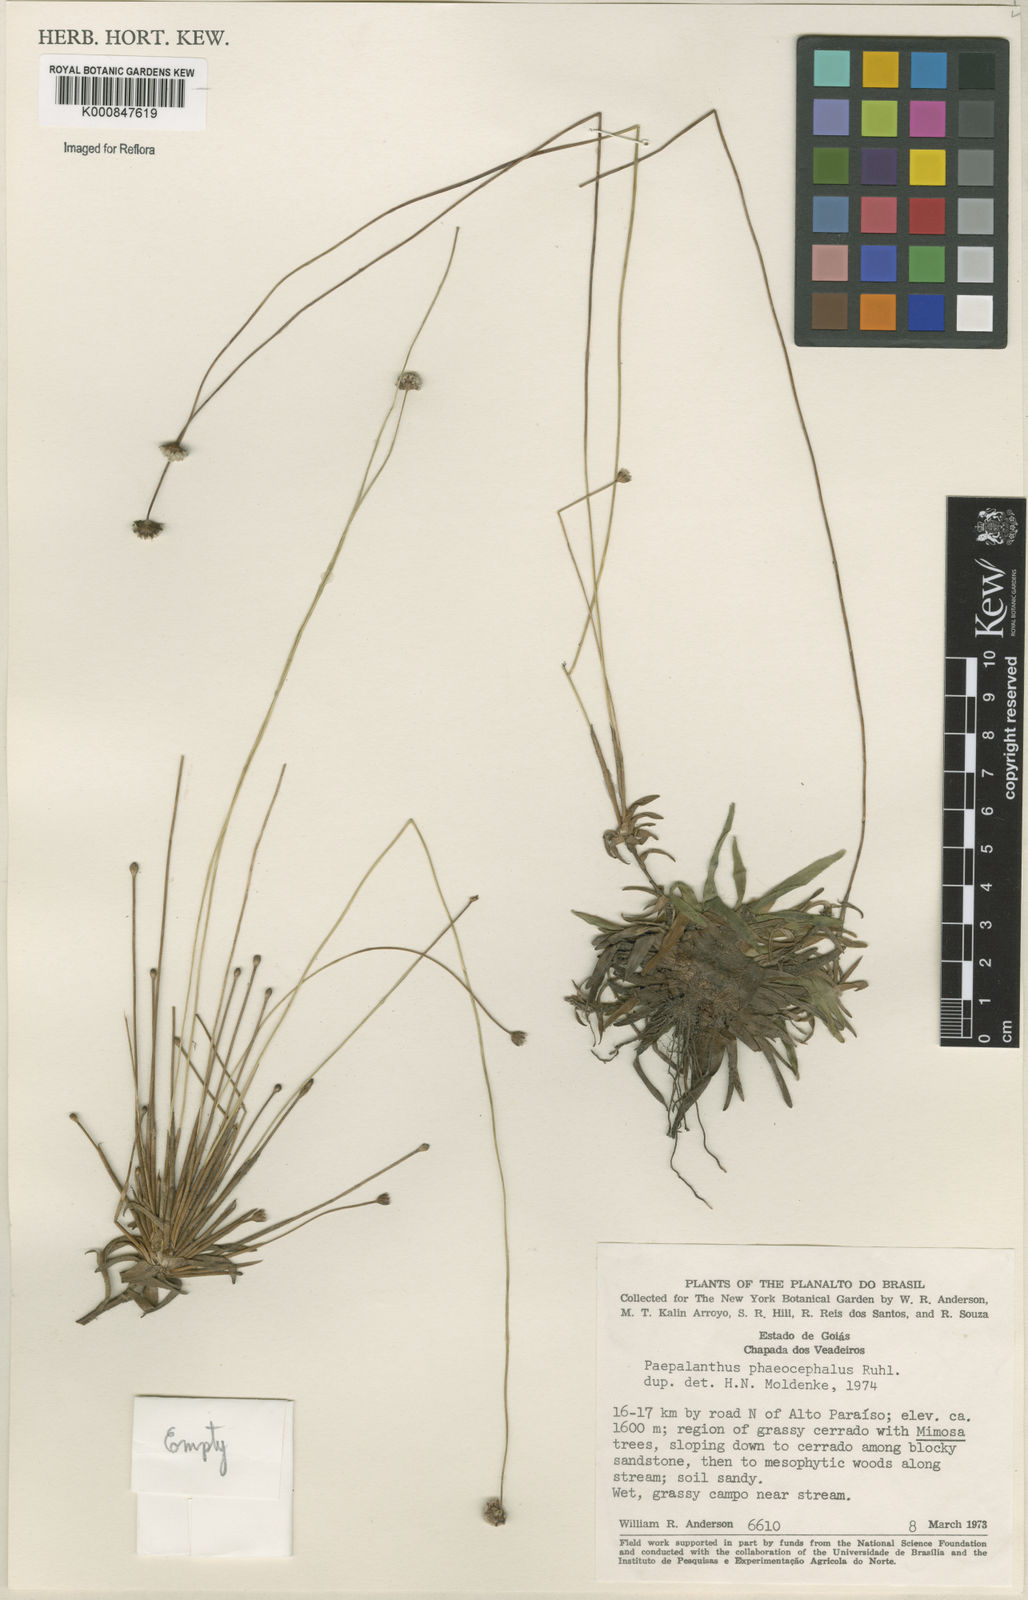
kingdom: Plantae
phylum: Tracheophyta
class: Liliopsida
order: Poales
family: Eriocaulaceae
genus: Paepalanthus
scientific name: Paepalanthus phaeocephalus
